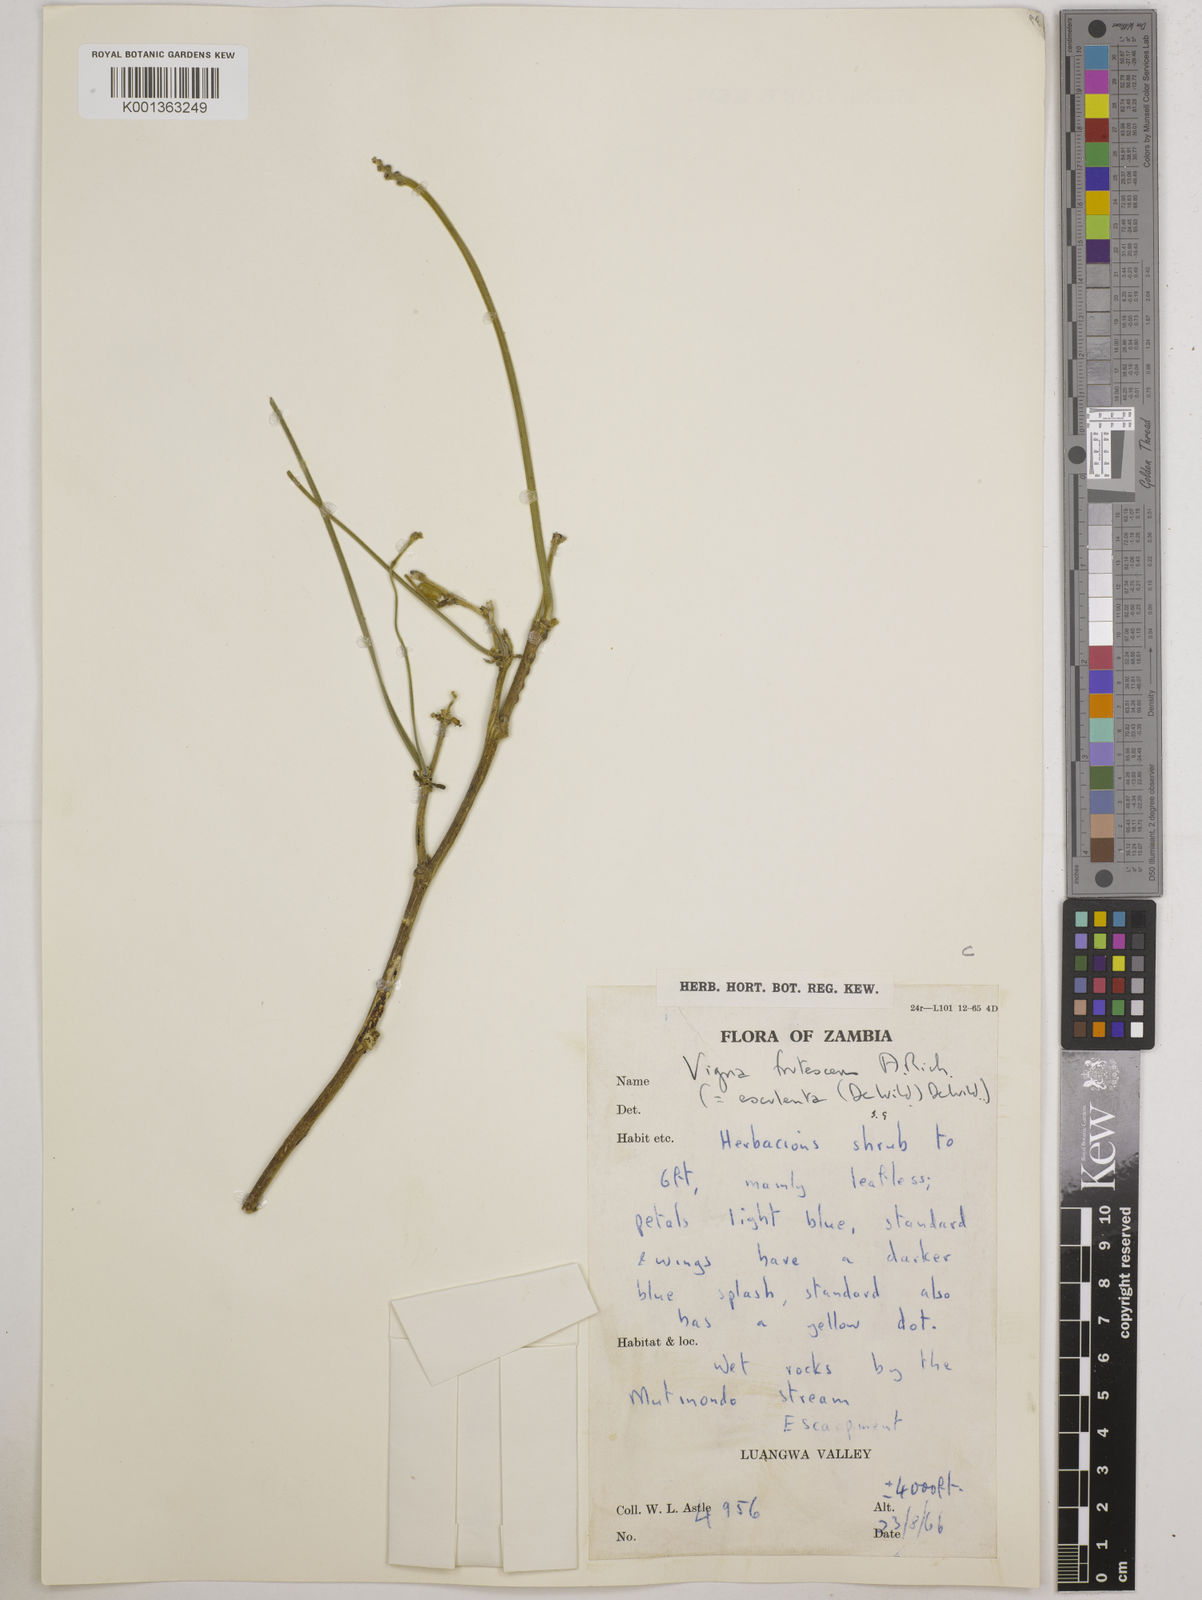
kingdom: Plantae
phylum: Tracheophyta
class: Magnoliopsida
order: Fabales
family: Fabaceae
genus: Vigna
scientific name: Vigna
